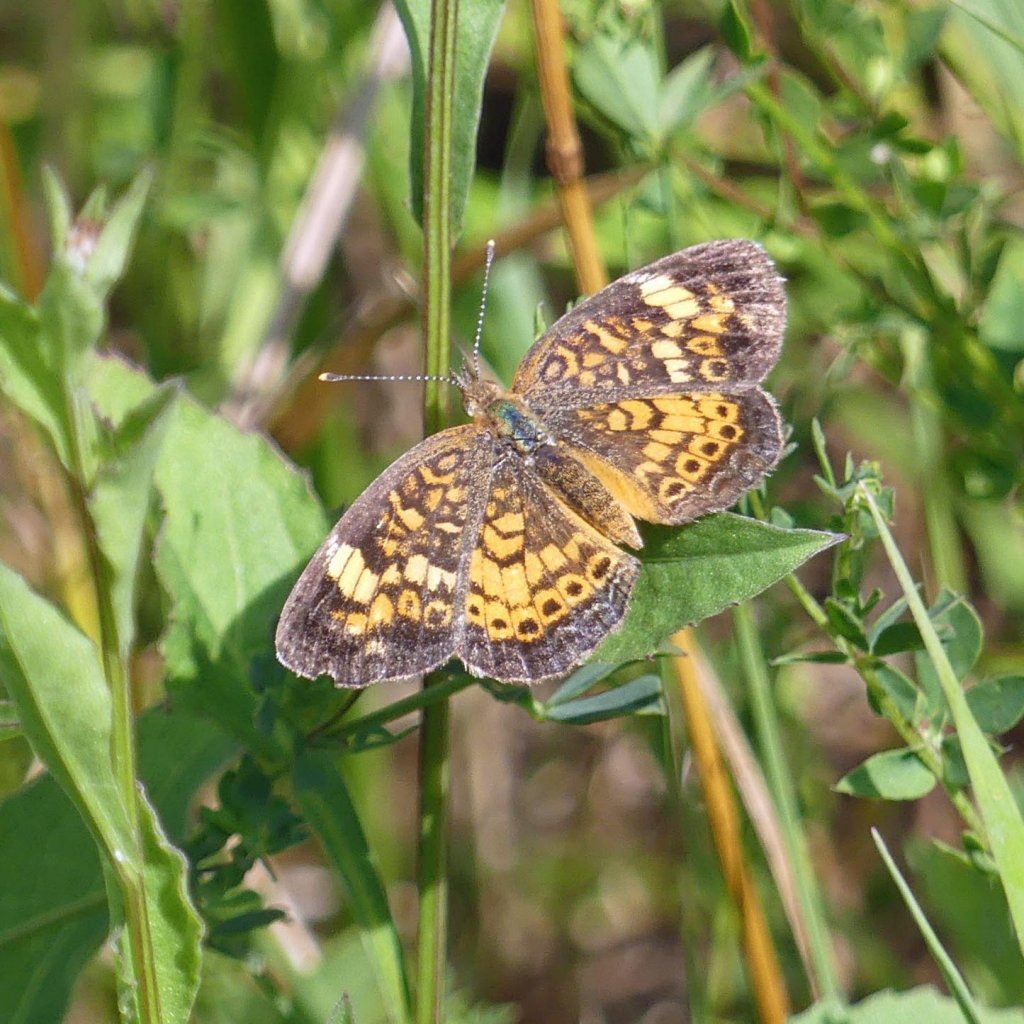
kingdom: Animalia
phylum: Arthropoda
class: Insecta
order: Lepidoptera
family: Nymphalidae
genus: Phyciodes
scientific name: Phyciodes tharos
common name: Northern Crescent
